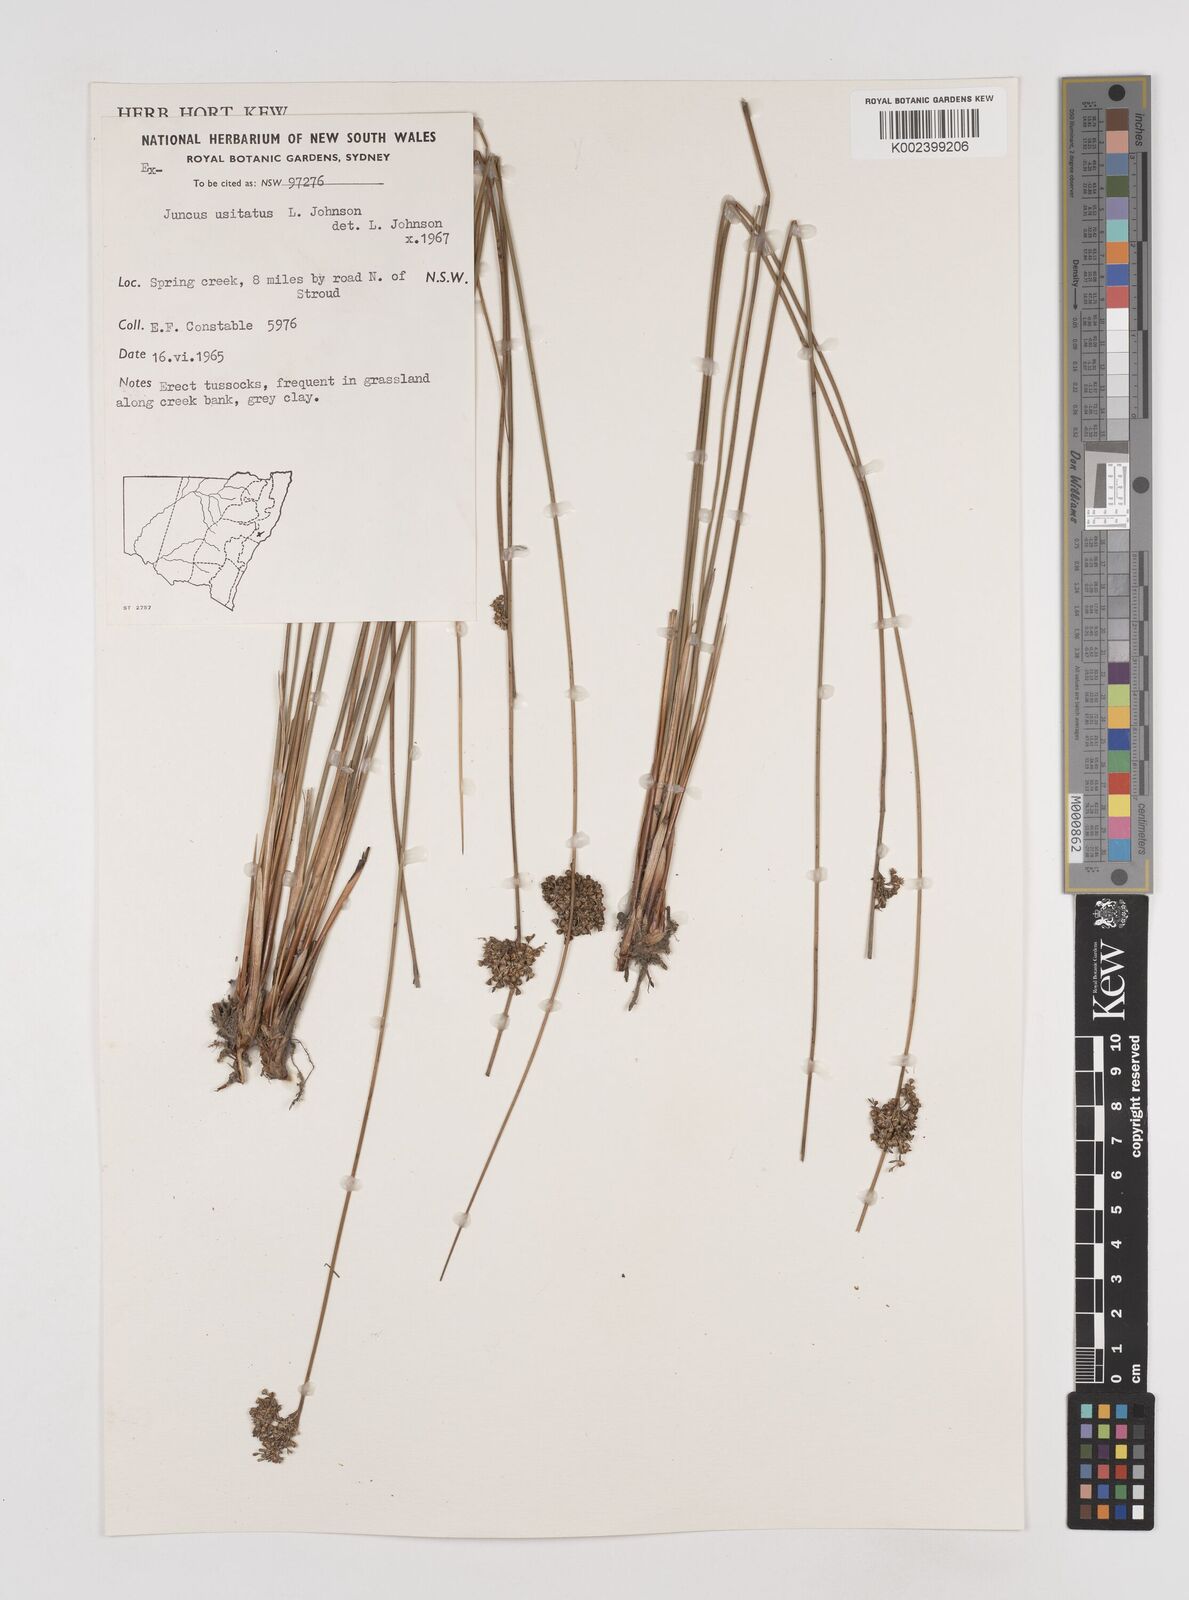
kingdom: Plantae
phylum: Tracheophyta
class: Liliopsida
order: Poales
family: Juncaceae
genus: Juncus
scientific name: Juncus usitatus
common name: Rush
